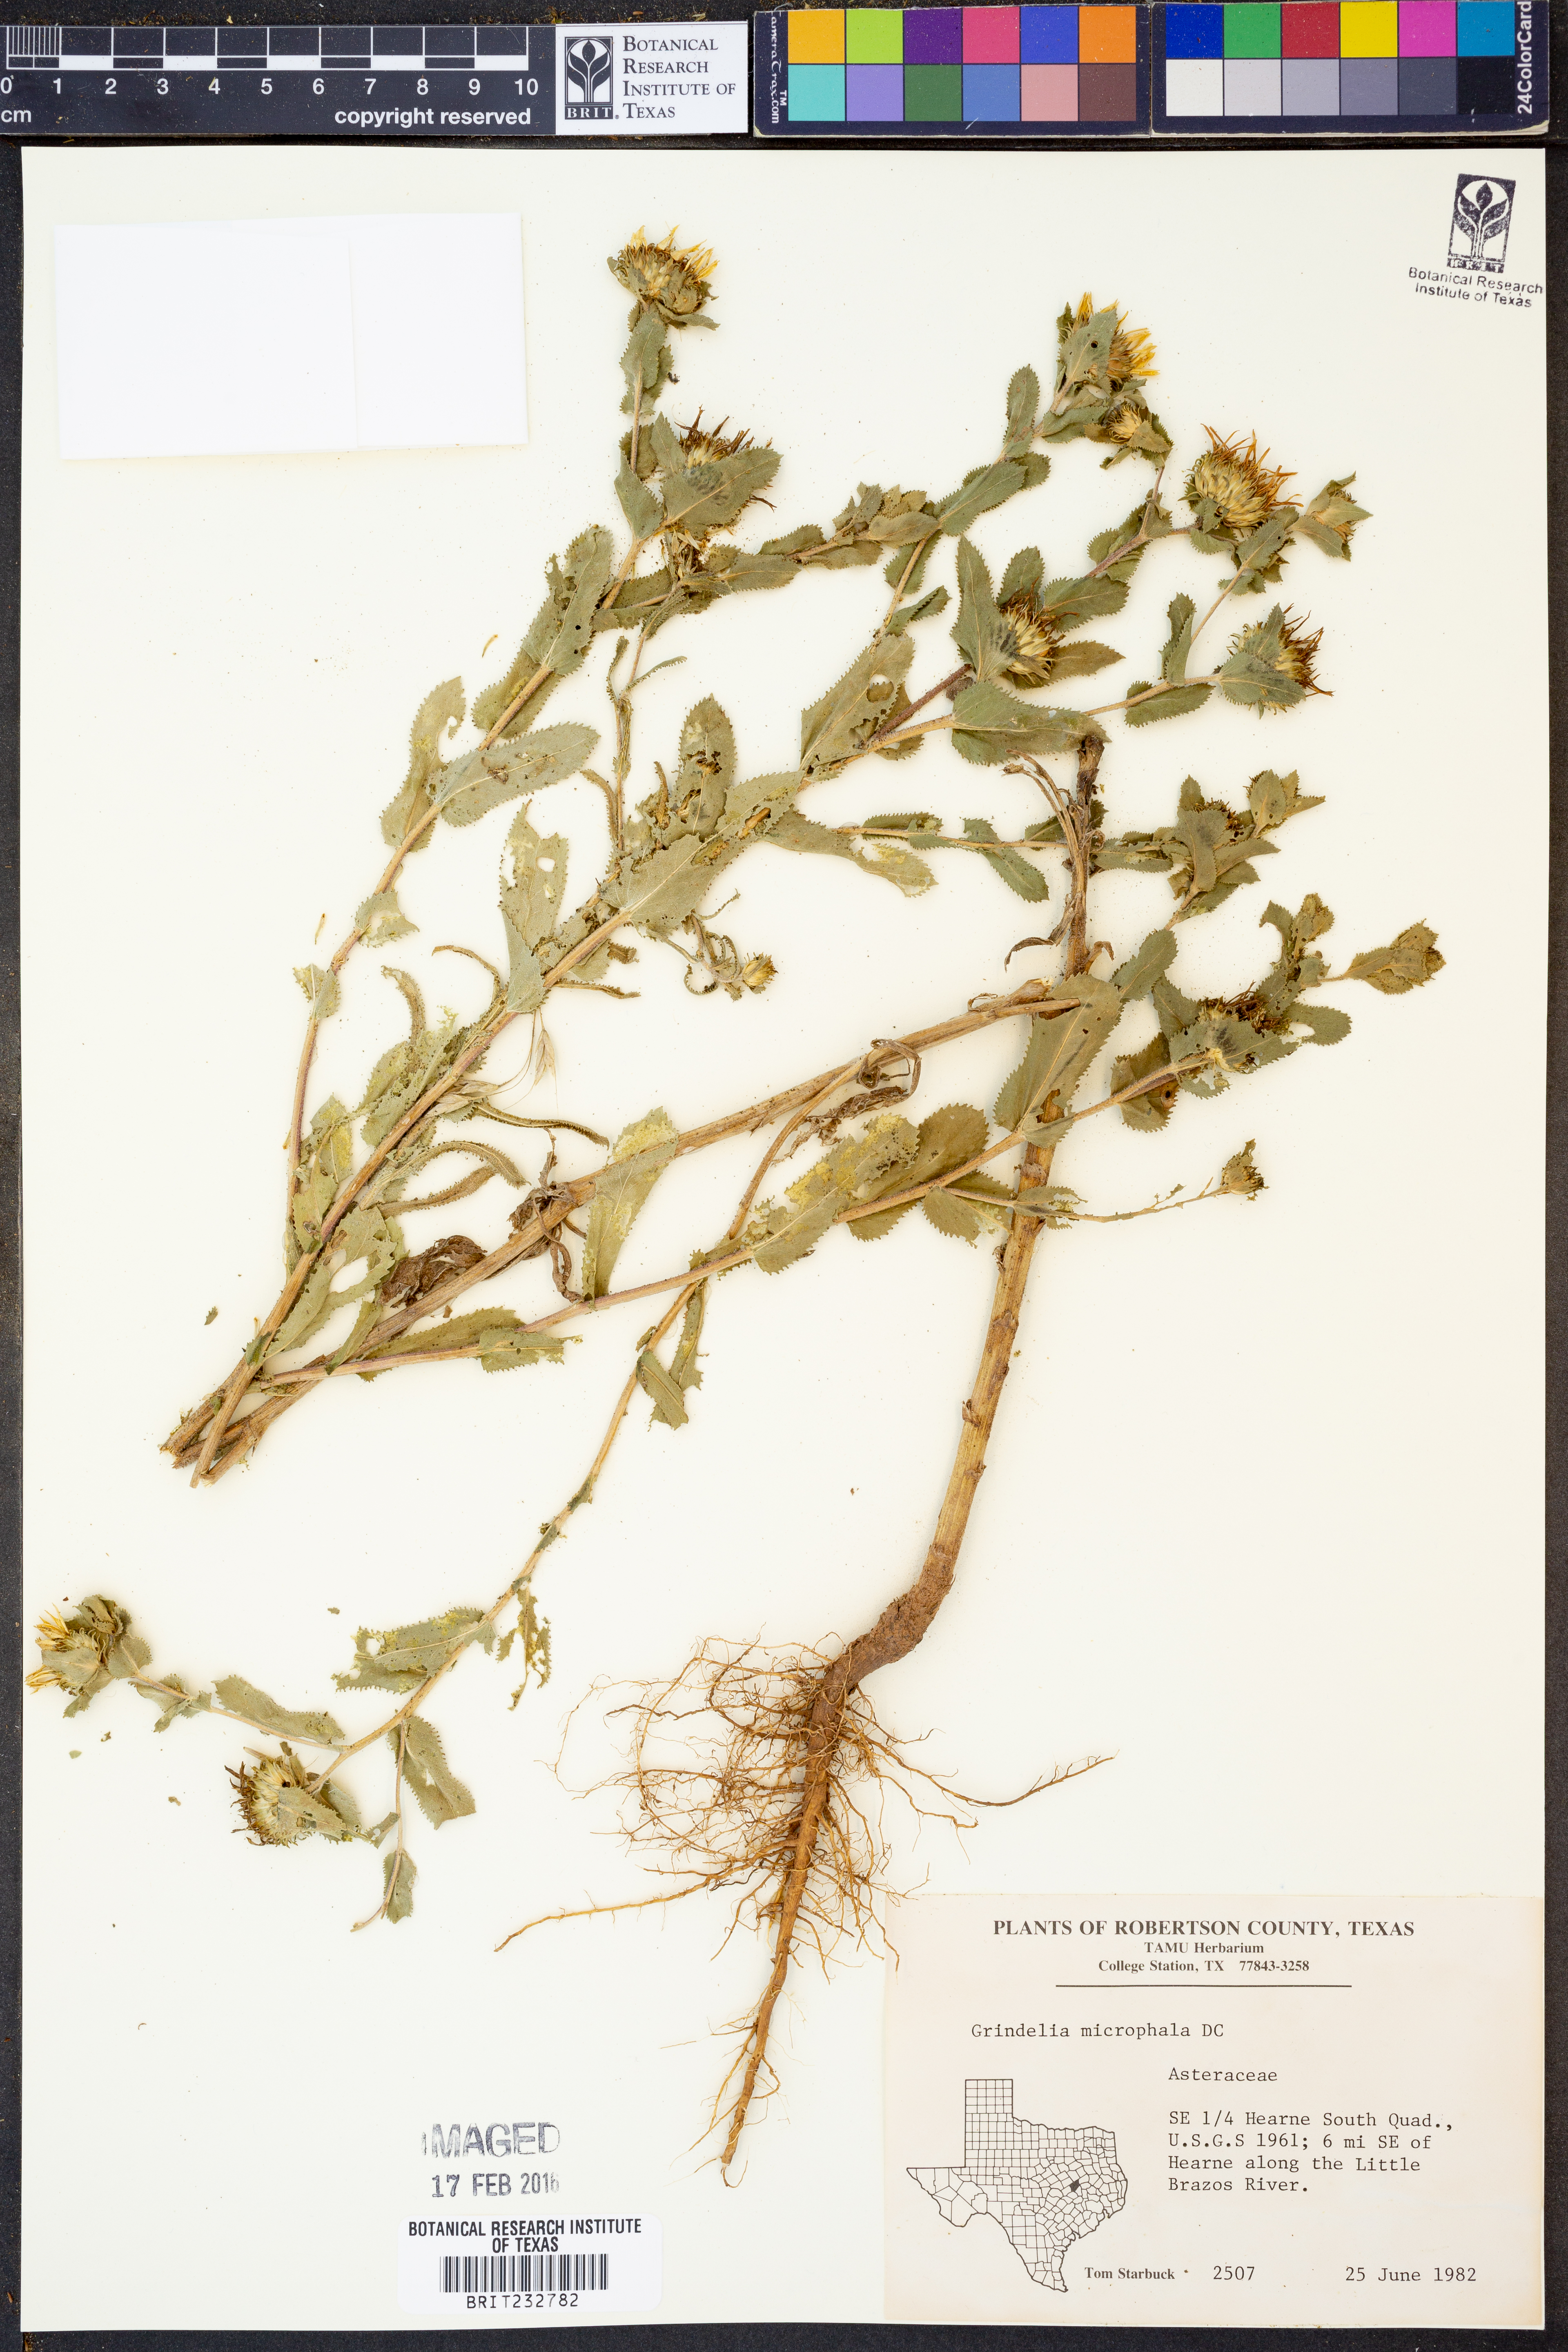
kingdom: Plantae
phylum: Tracheophyta
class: Magnoliopsida
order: Asterales
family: Asteraceae
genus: Grindelia
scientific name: Grindelia arizonica
